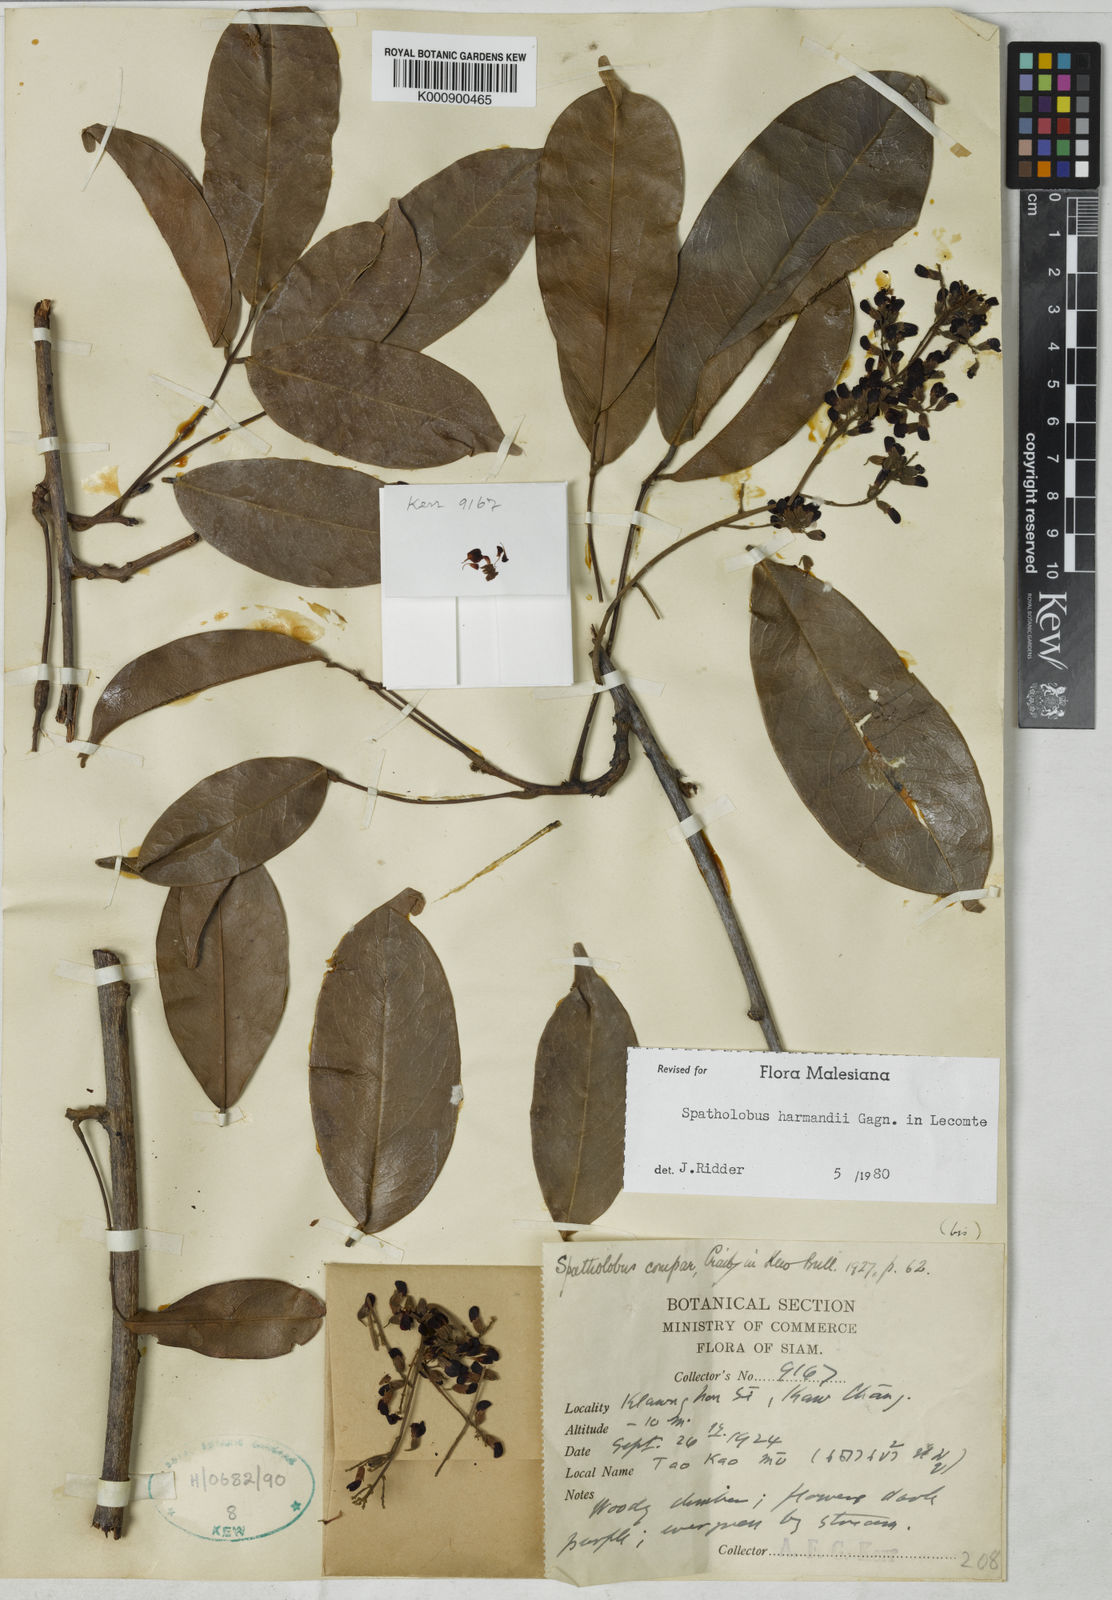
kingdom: Plantae
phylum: Tracheophyta
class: Magnoliopsida
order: Fabales
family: Fabaceae
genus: Spatholobus
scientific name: Spatholobus harmandii
